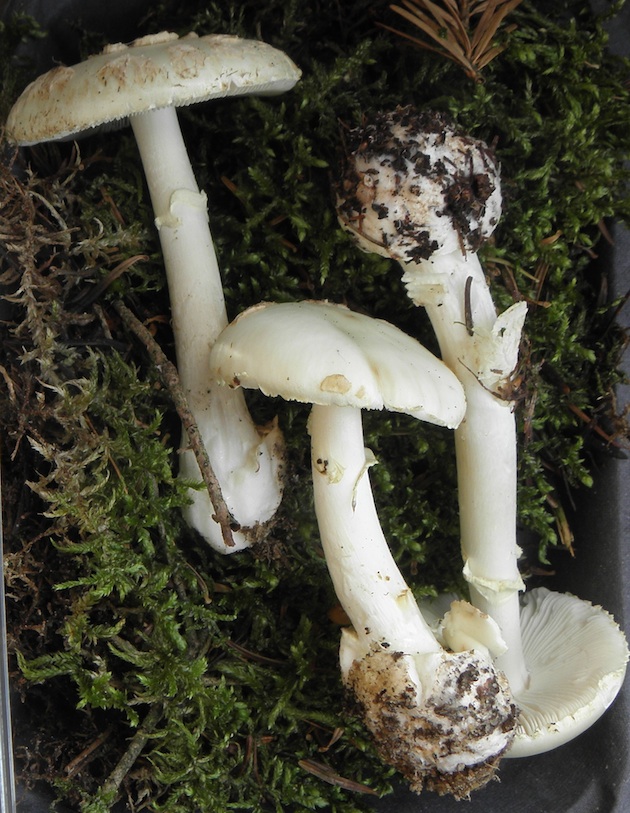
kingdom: Fungi
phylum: Basidiomycota
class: Agaricomycetes
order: Agaricales
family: Amanitaceae
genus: Amanita
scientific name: Amanita citrina
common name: False death-cap
